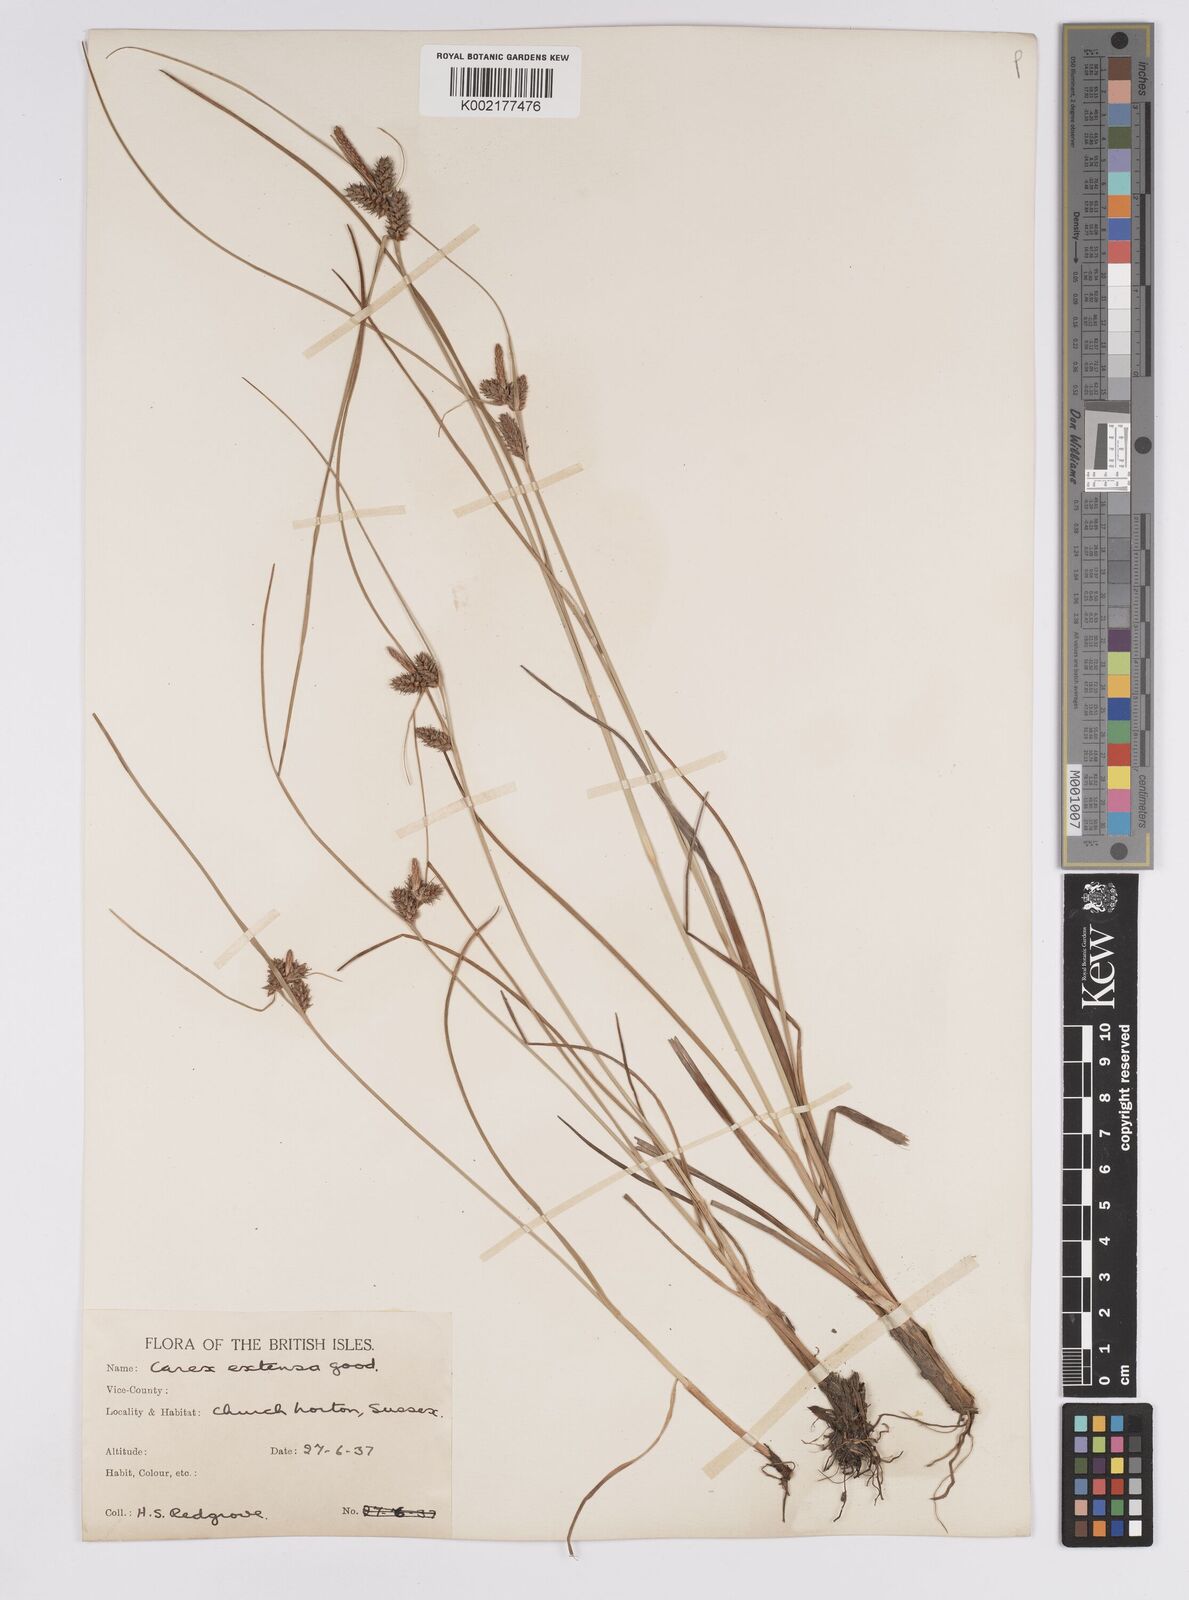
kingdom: Plantae
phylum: Tracheophyta
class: Liliopsida
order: Poales
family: Cyperaceae
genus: Carex
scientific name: Carex extensa
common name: Long-bracted sedge
